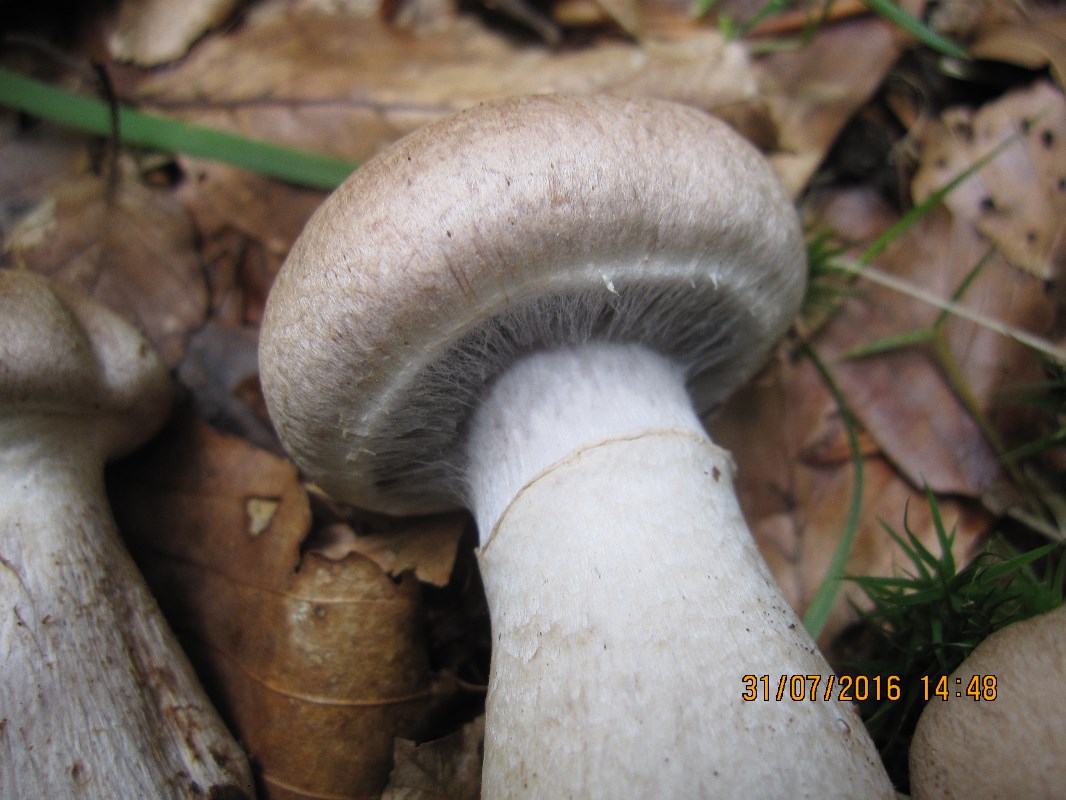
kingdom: Fungi
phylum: Basidiomycota
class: Agaricomycetes
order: Agaricales
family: Cortinariaceae
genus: Cortinarius
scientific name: Cortinarius torvus
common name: champignonagtig slørhat
